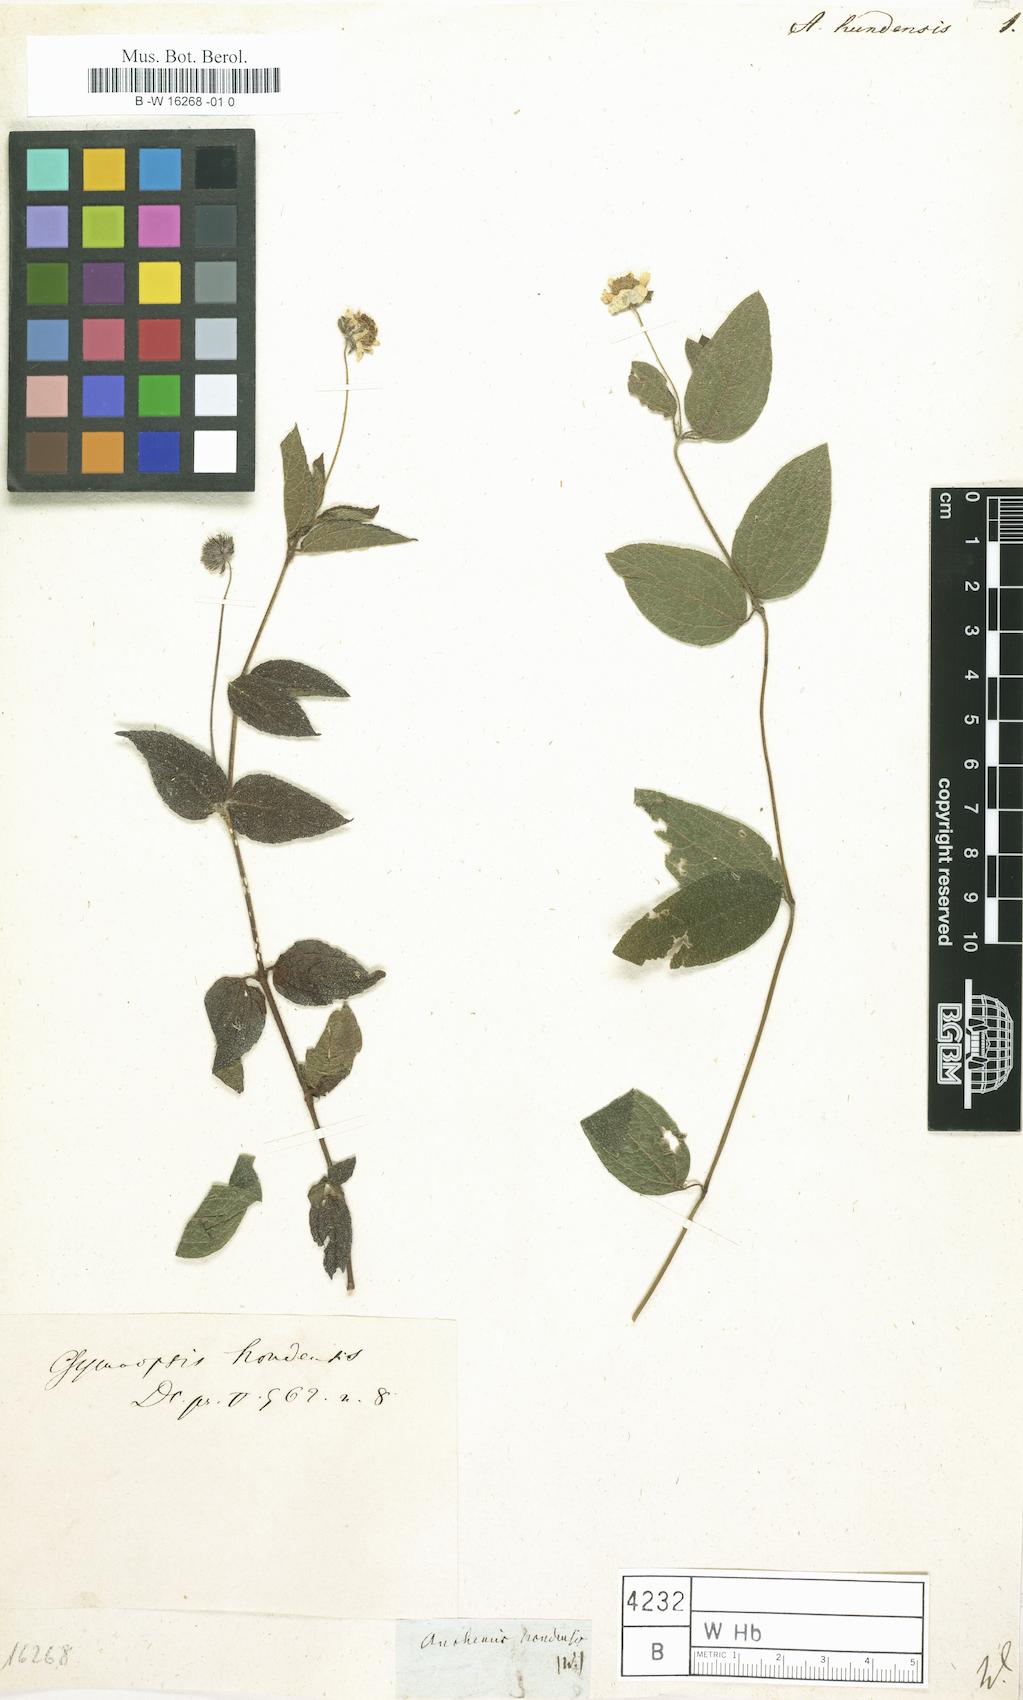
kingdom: Plantae
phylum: Tracheophyta
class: Magnoliopsida
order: Asterales
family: Asteraceae
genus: Wedelia
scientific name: Wedelia acapulcensis
